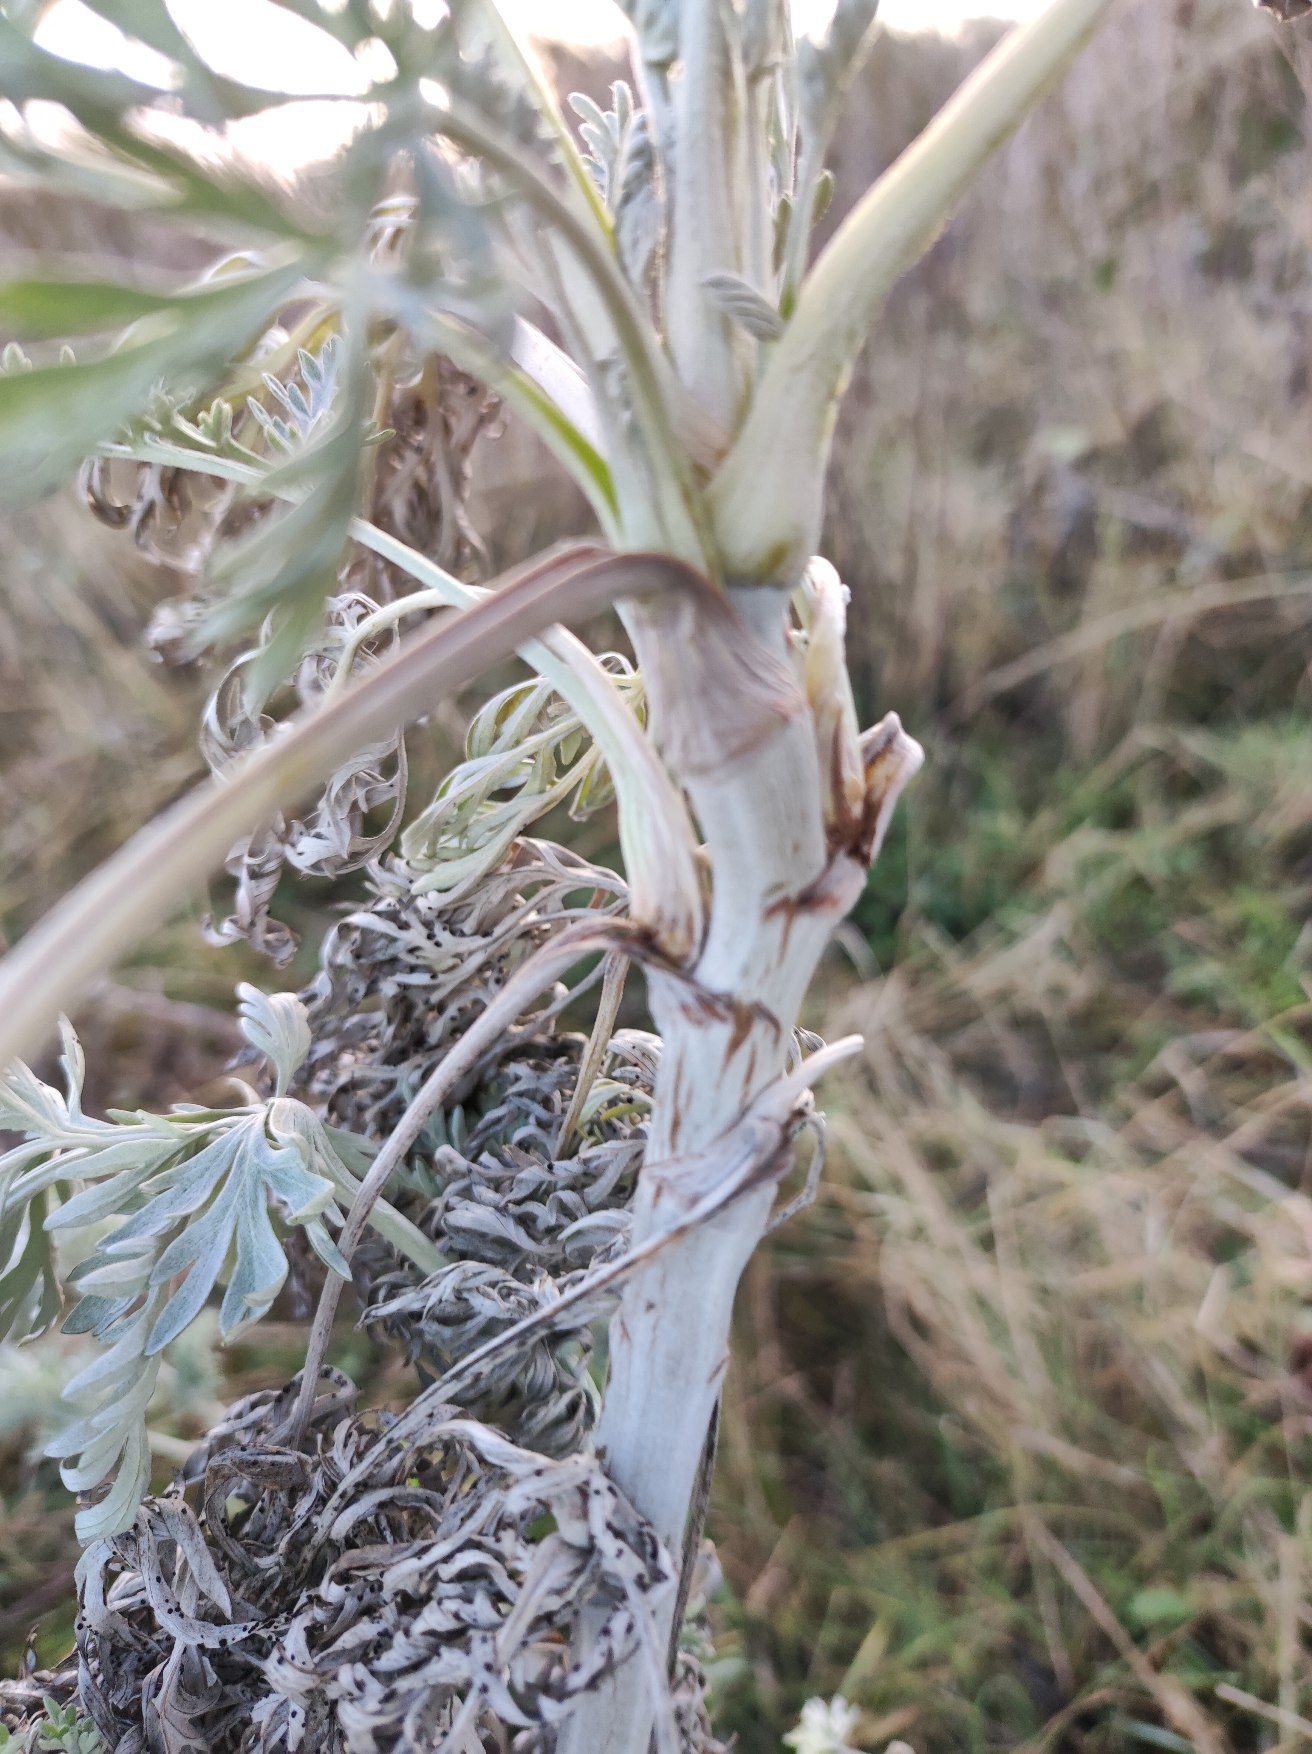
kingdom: Plantae
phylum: Tracheophyta
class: Magnoliopsida
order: Asterales
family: Asteraceae
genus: Artemisia
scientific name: Artemisia maritima
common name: Strandmalurt
